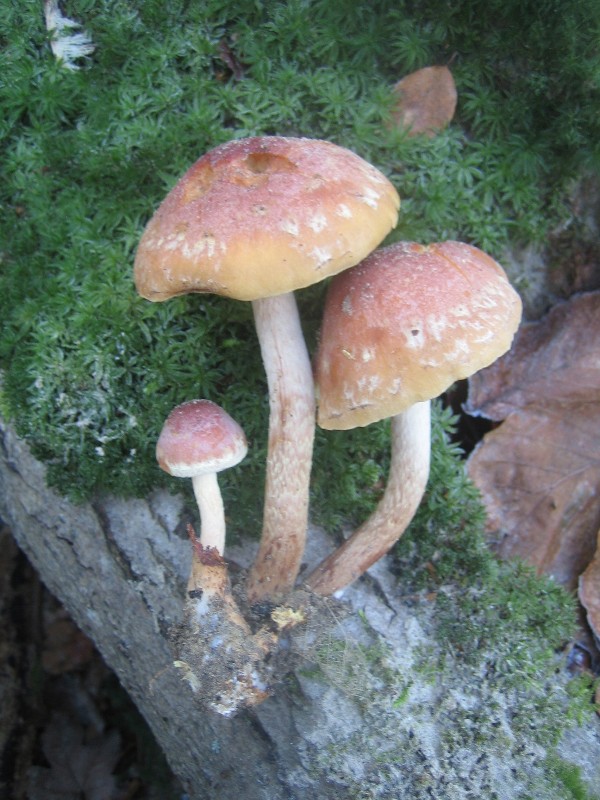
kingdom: Fungi
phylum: Basidiomycota
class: Agaricomycetes
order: Agaricales
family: Strophariaceae
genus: Hypholoma
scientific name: Hypholoma lateritium
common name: teglrød svovlhat
